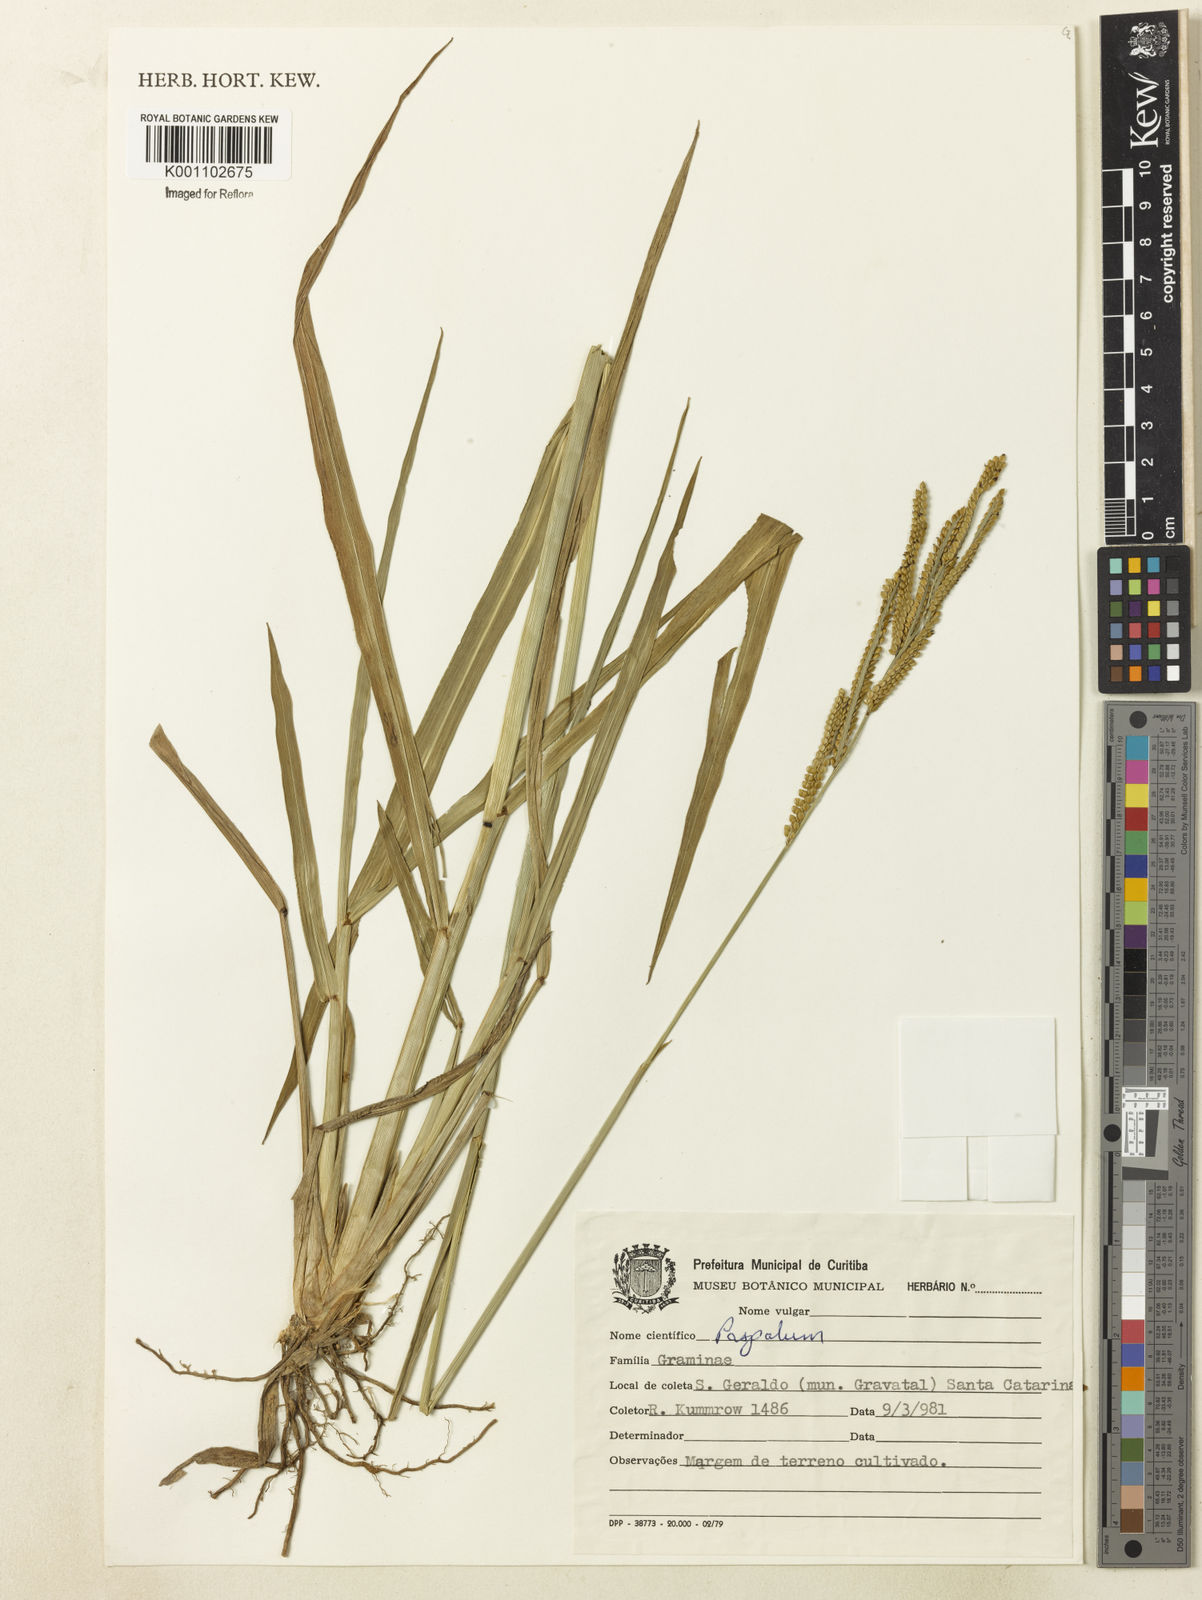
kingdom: Plantae
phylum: Tracheophyta
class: Liliopsida
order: Poales
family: Poaceae
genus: Paspalum
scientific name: Paspalum
